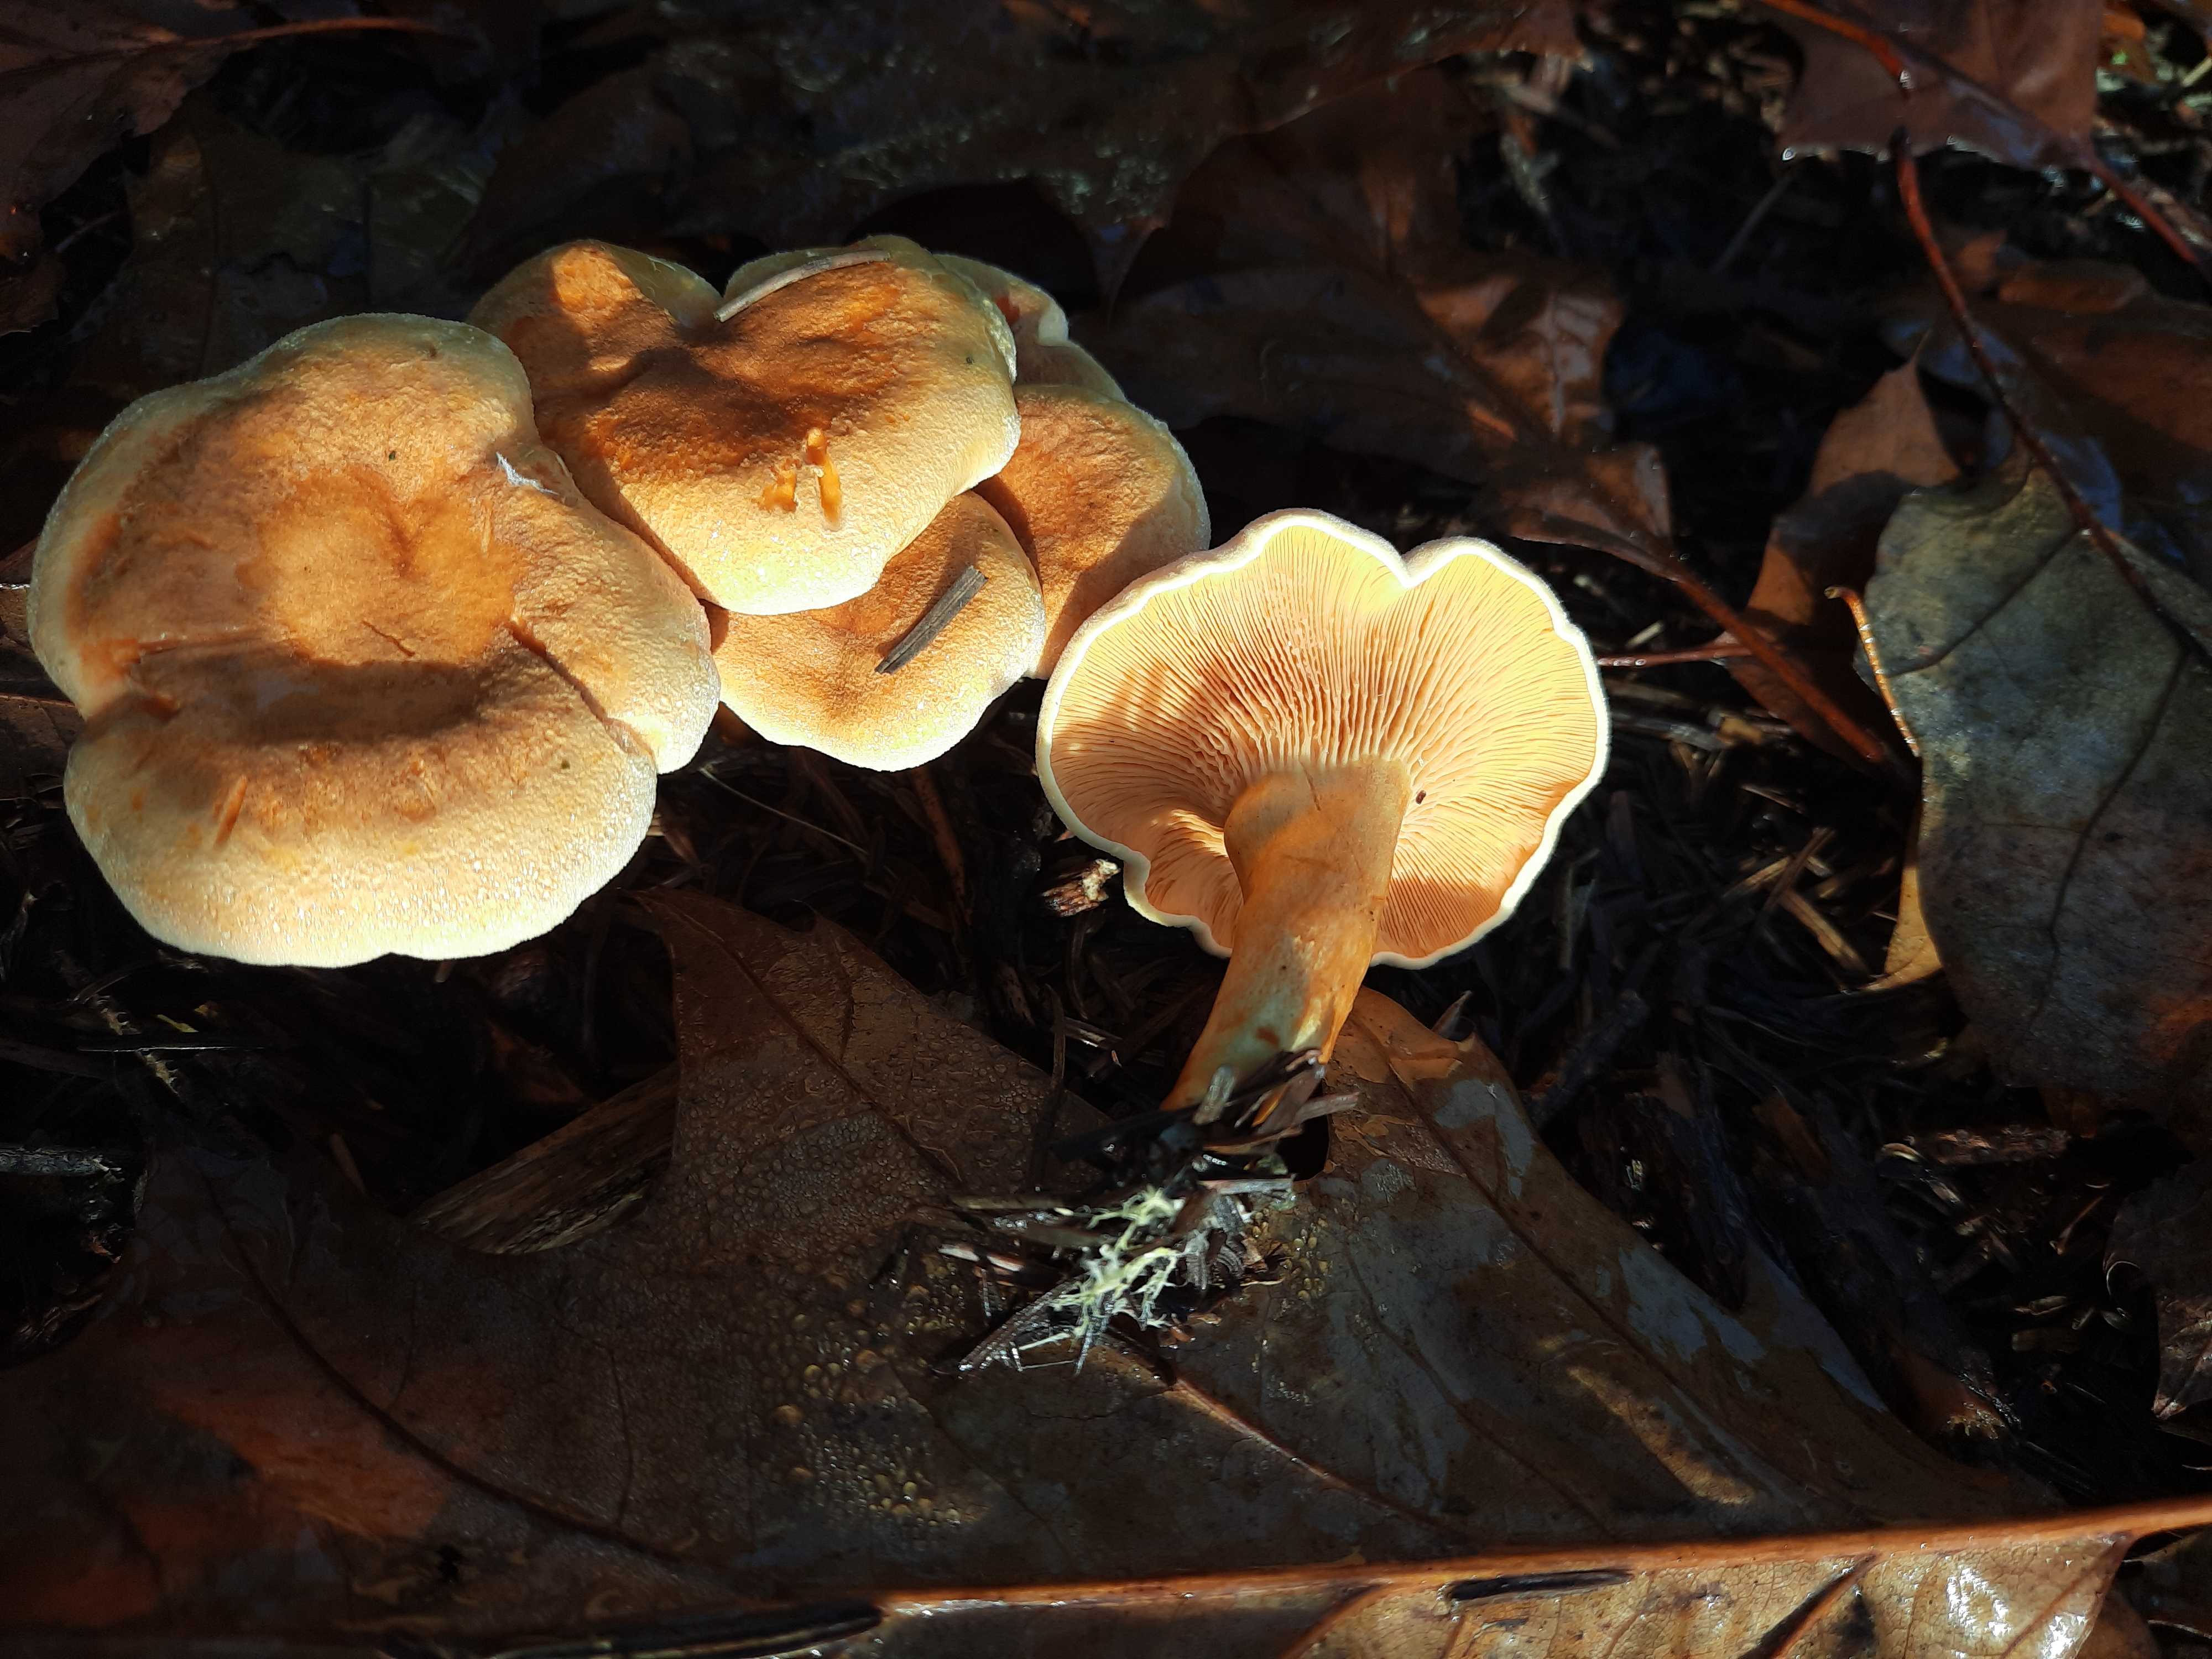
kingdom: Fungi
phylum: Basidiomycota
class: Agaricomycetes
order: Boletales
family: Hygrophoropsidaceae
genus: Hygrophoropsis
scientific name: Hygrophoropsis aurantiaca
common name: almindelig orangekantarel
